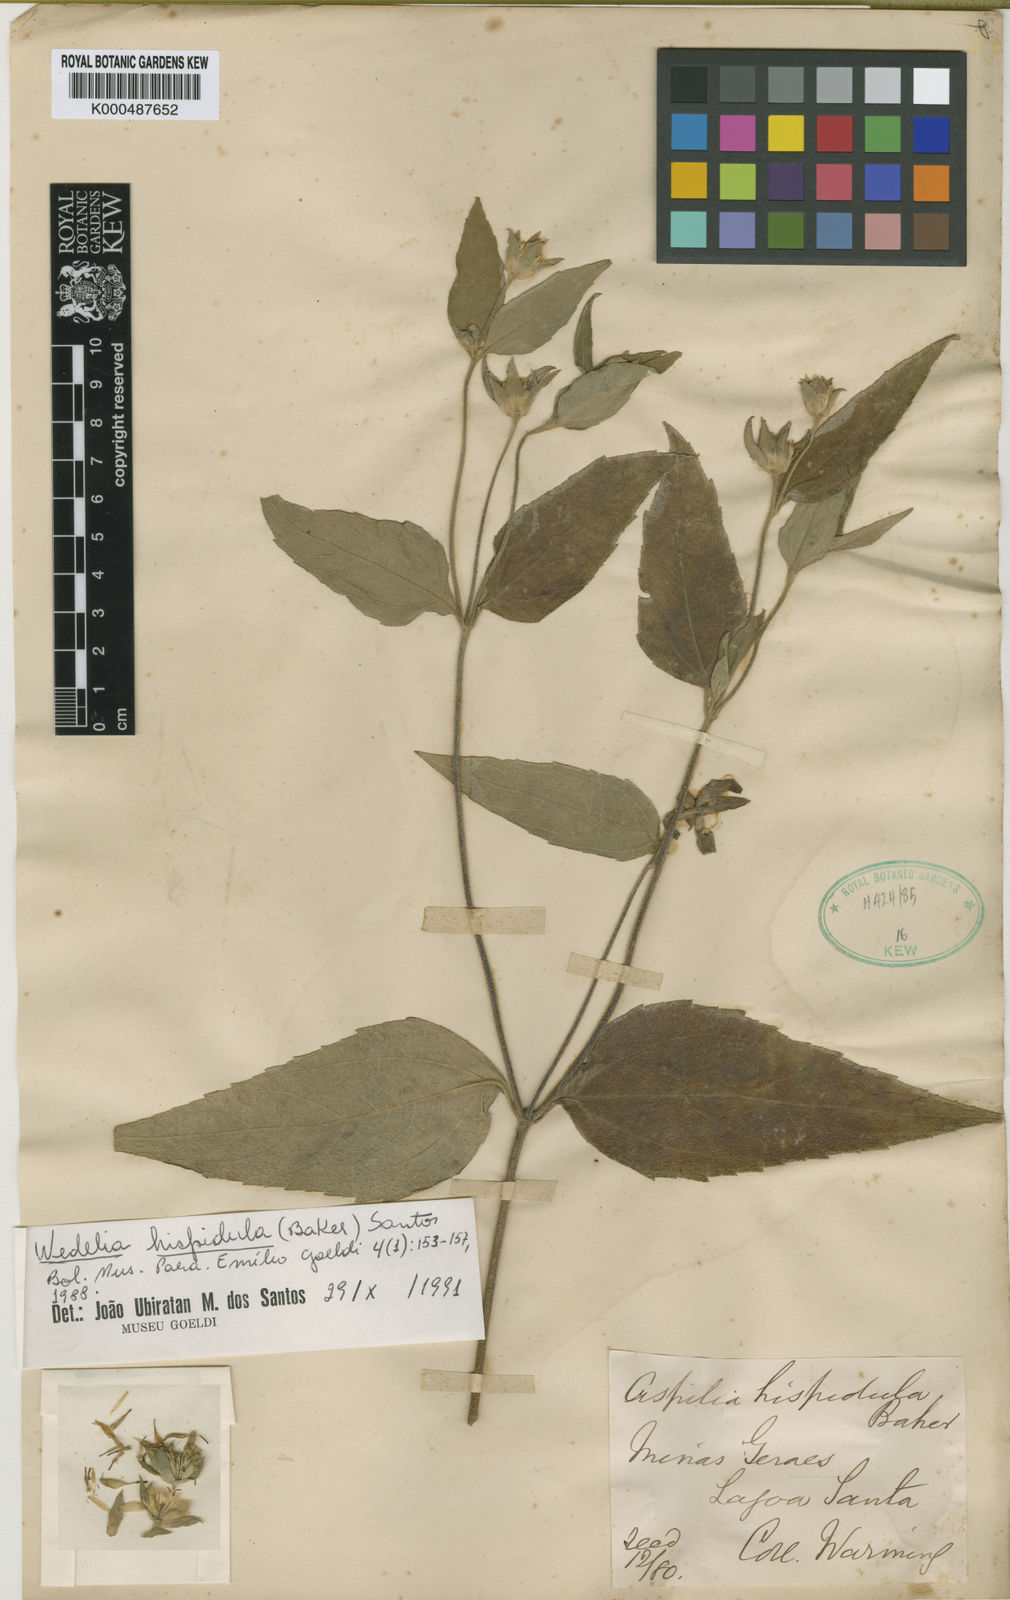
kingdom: Plantae
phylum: Tracheophyta
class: Magnoliopsida
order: Asterales
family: Asteraceae
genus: Wedelia
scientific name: Wedelia hispidula
